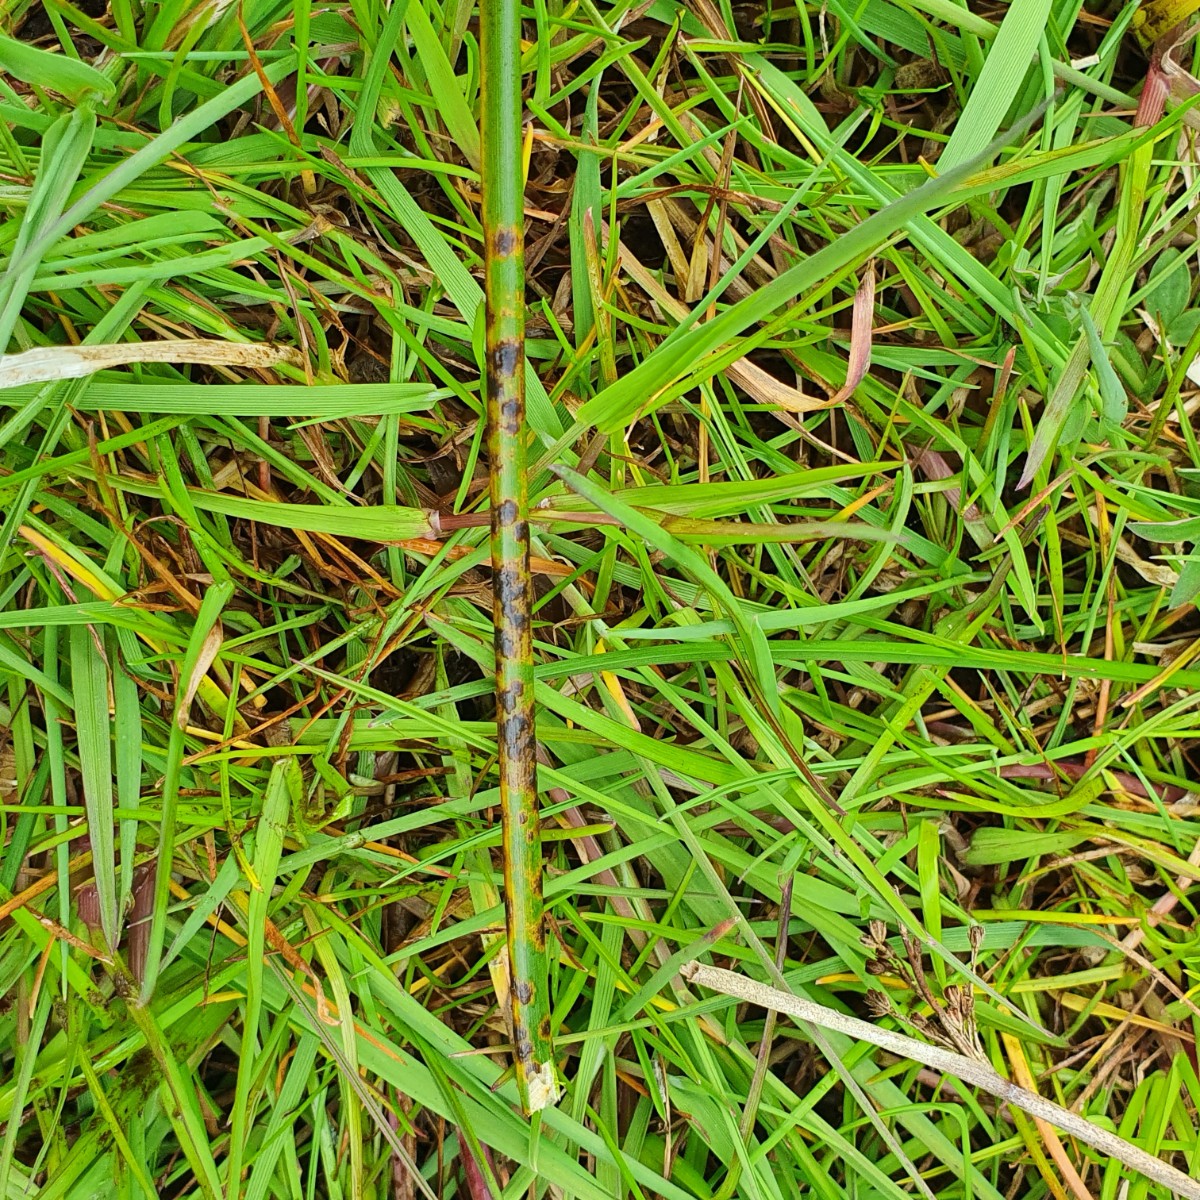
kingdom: Fungi
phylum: Ascomycota
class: Sordariomycetes
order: Phyllachorales
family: Phyllachoraceae
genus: Phyllachora
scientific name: Phyllachora junci
